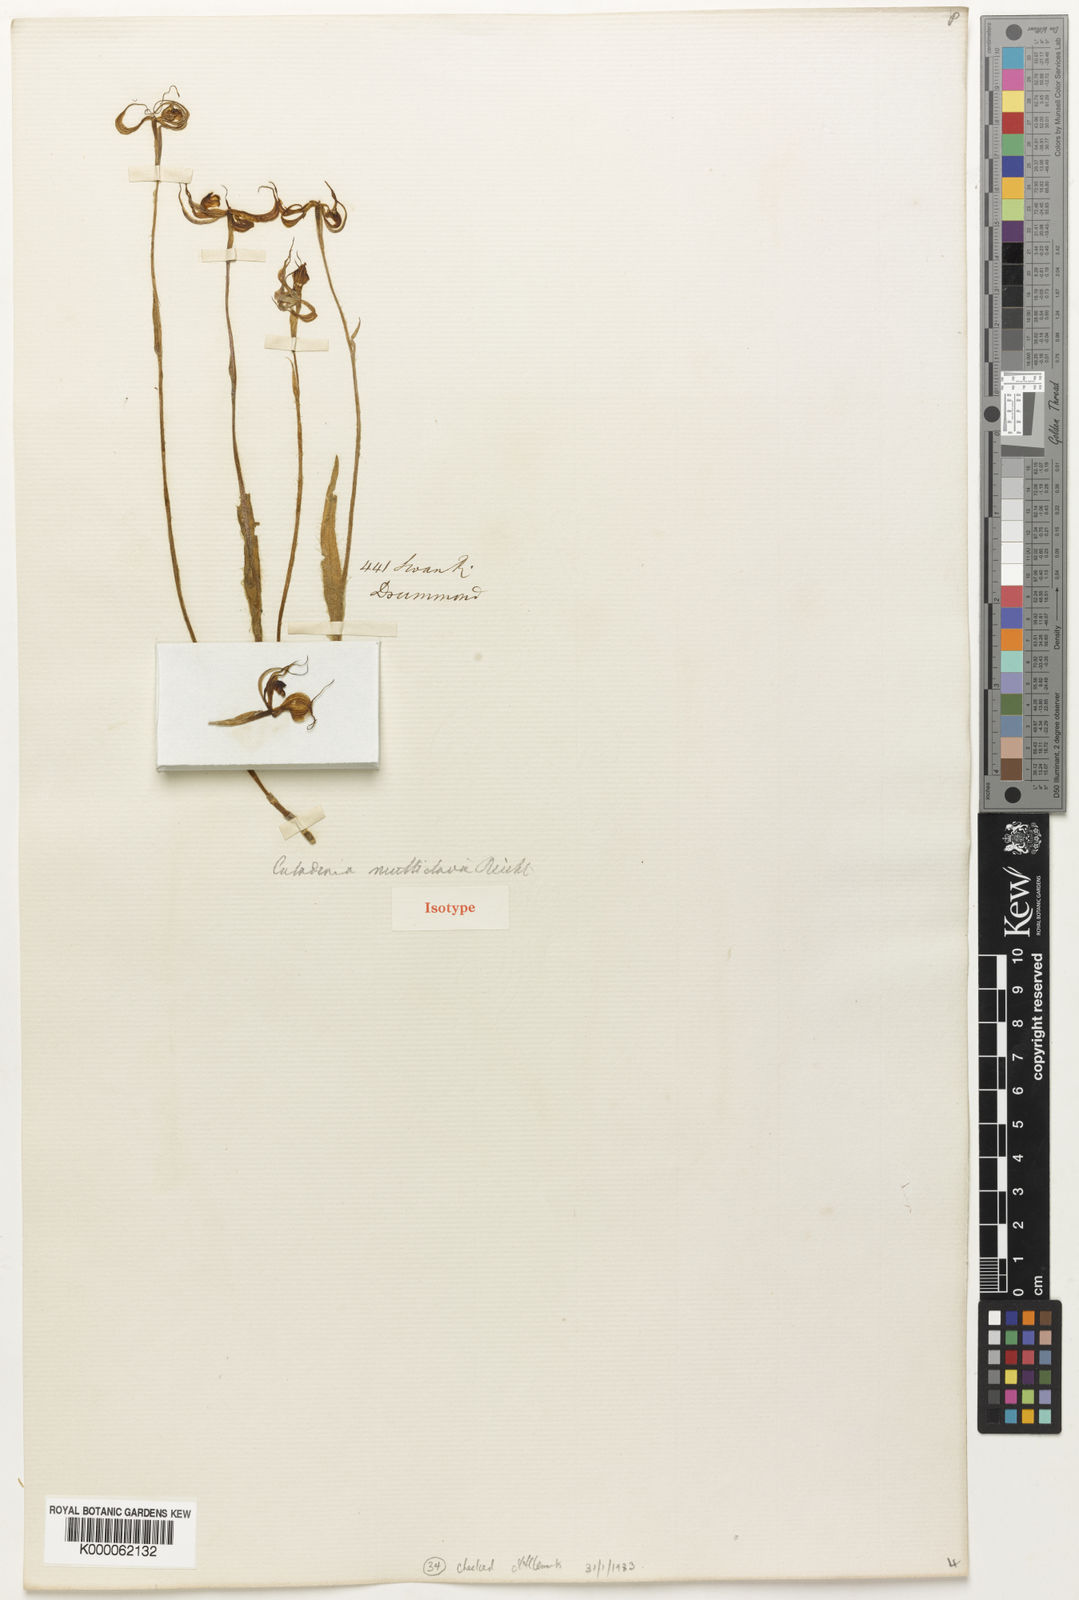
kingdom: Plantae
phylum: Tracheophyta
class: Liliopsida
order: Asparagales
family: Orchidaceae
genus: Caladenia
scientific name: Caladenia multiclavia
